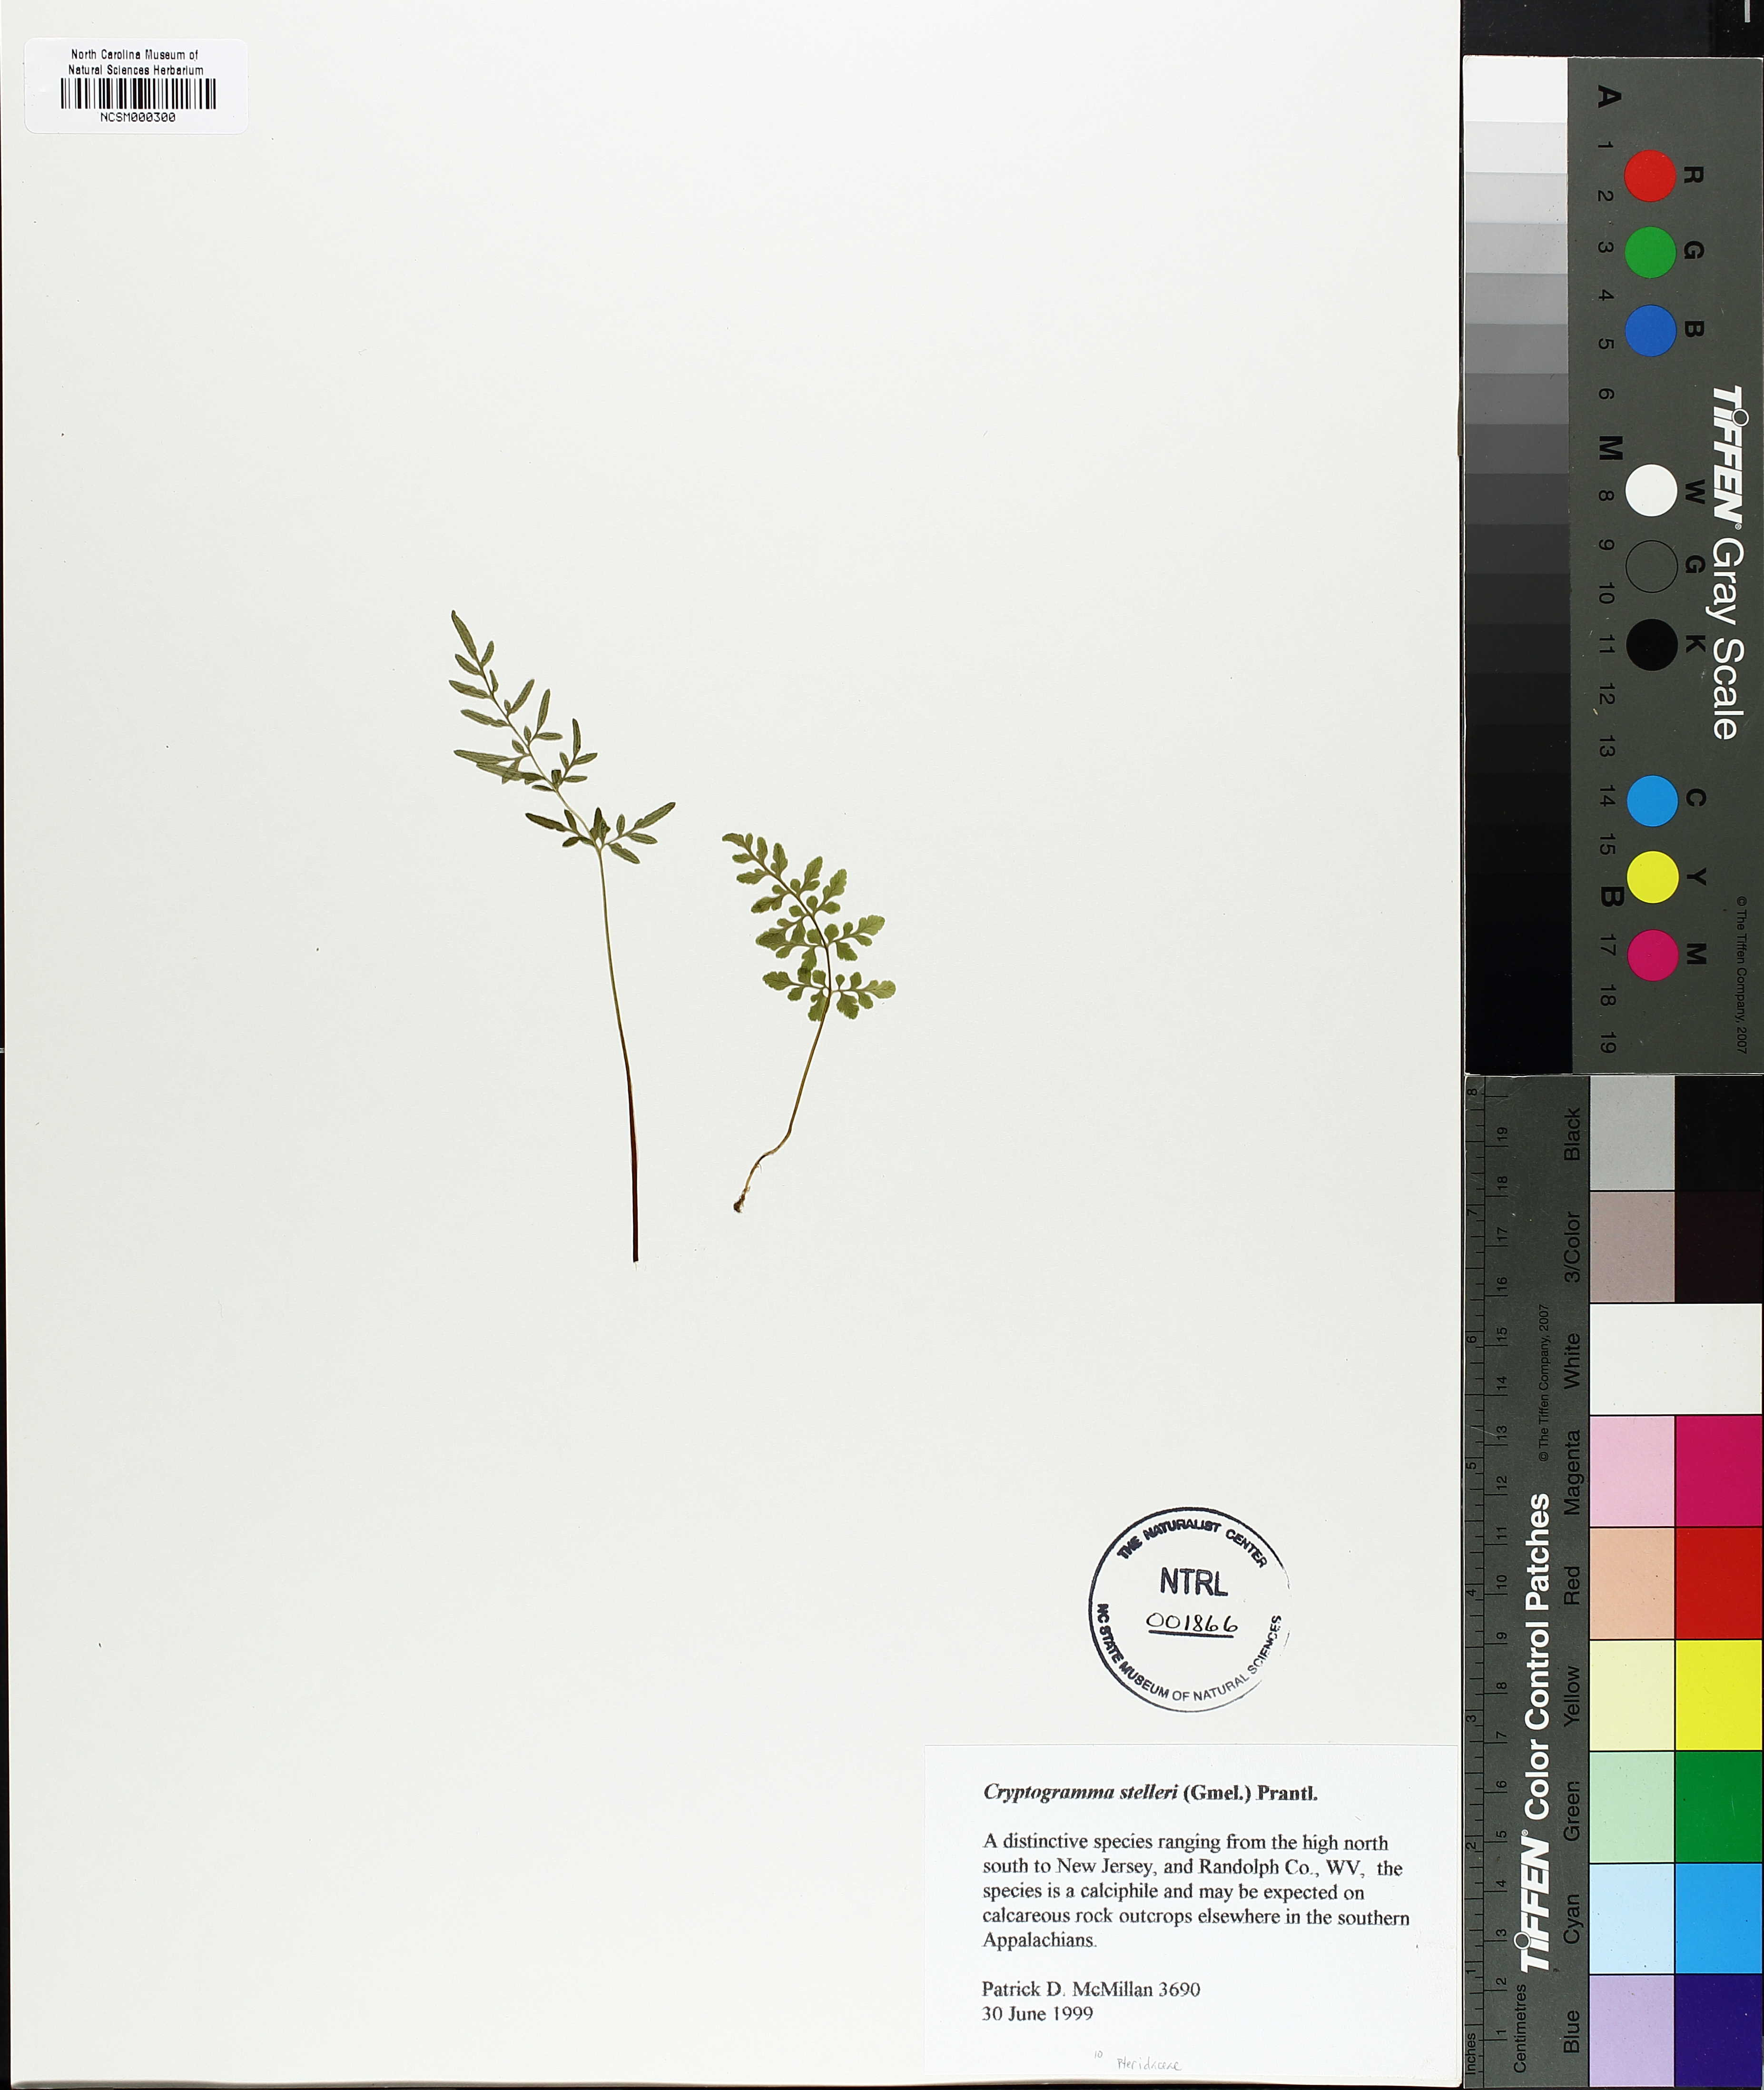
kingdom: Plantae
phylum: Tracheophyta
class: Polypodiopsida
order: Polypodiales
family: Pteridaceae
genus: Cryptogramma
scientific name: Cryptogramma stelleri
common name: Cliff-brake
